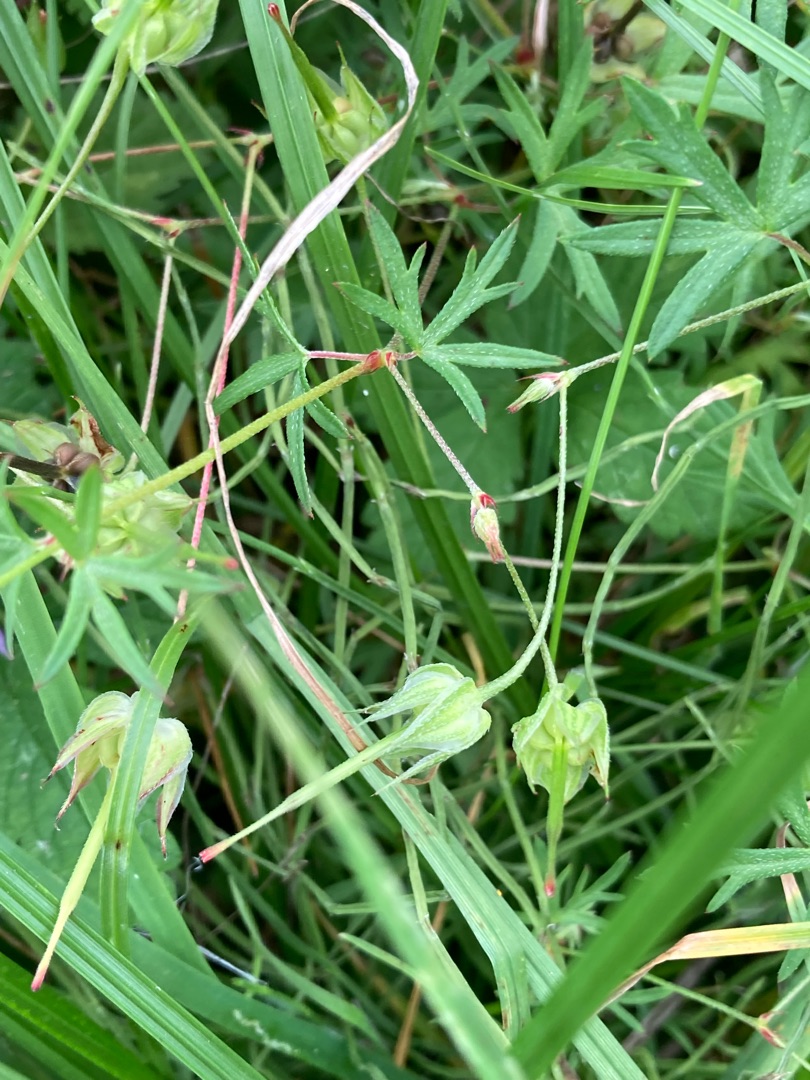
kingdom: Plantae
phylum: Tracheophyta
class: Magnoliopsida
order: Geraniales
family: Geraniaceae
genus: Geranium
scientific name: Geranium columbinum
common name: Storbægret storkenæb
